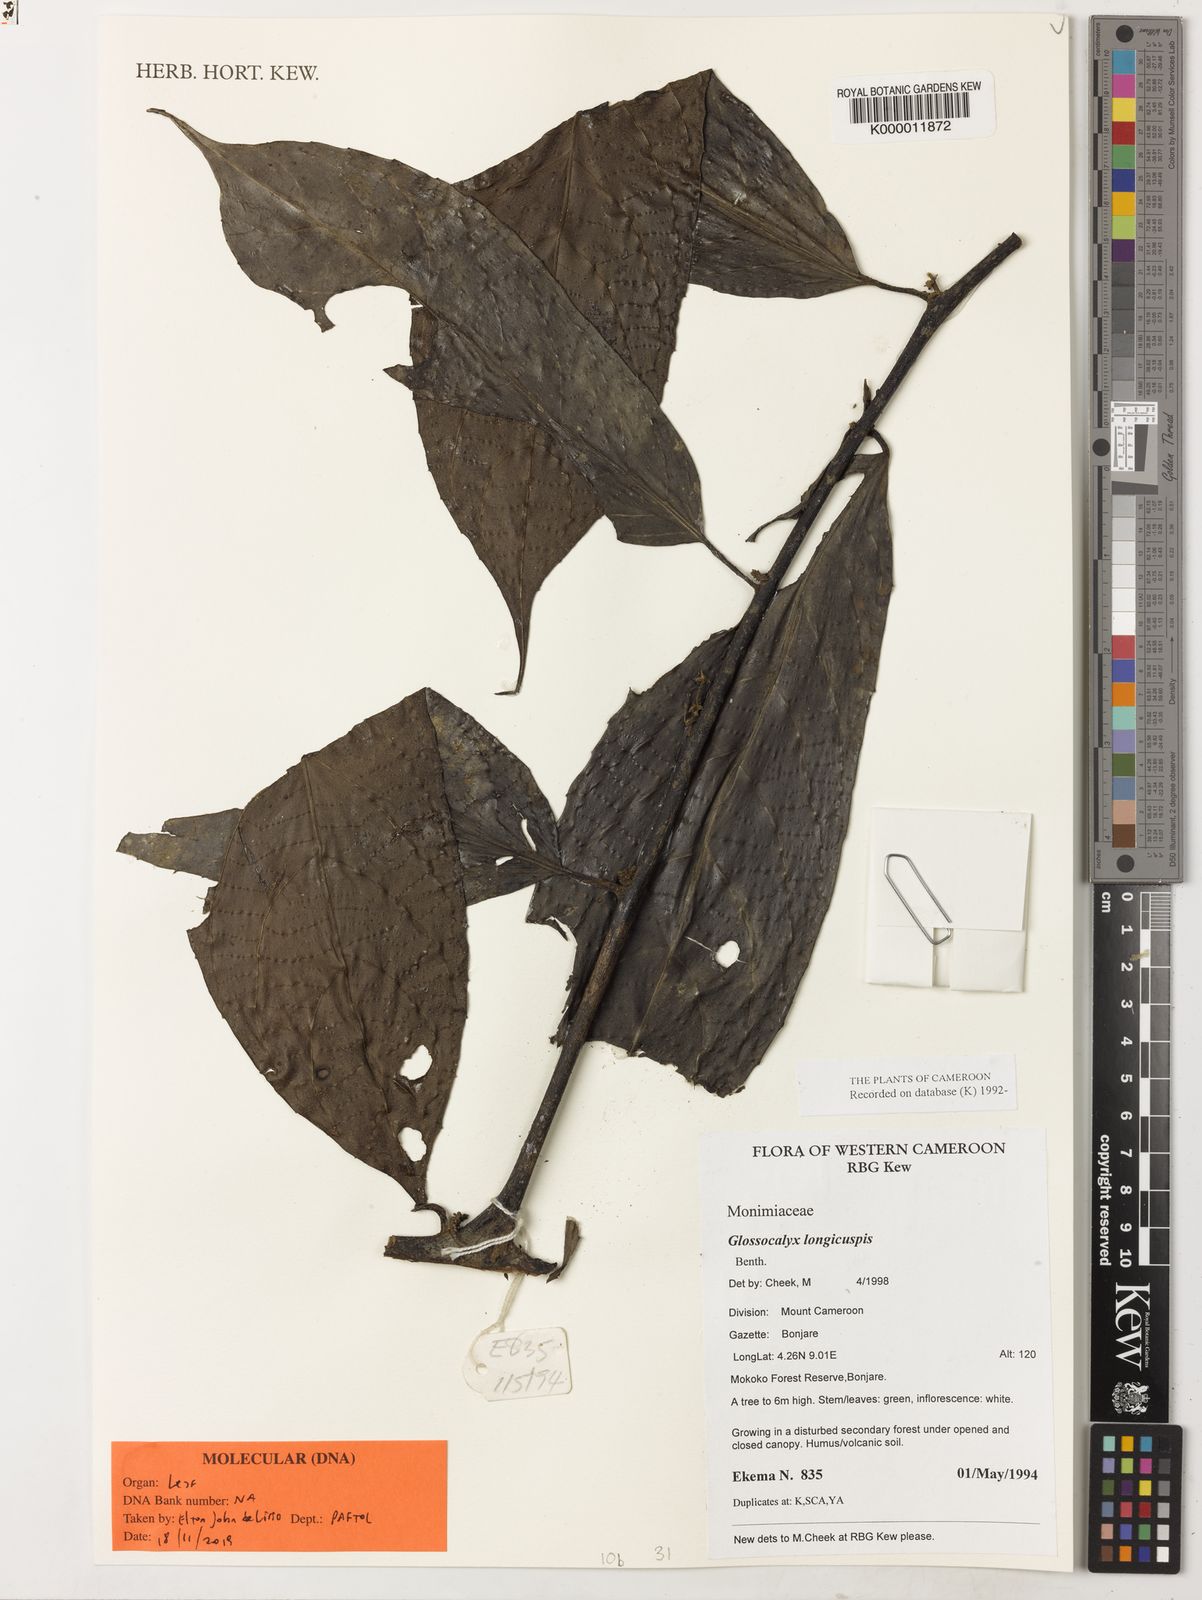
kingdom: Plantae
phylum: Tracheophyta
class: Magnoliopsida
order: Laurales
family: Siparunaceae
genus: Glossocalyx
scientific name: Glossocalyx longicuspis
